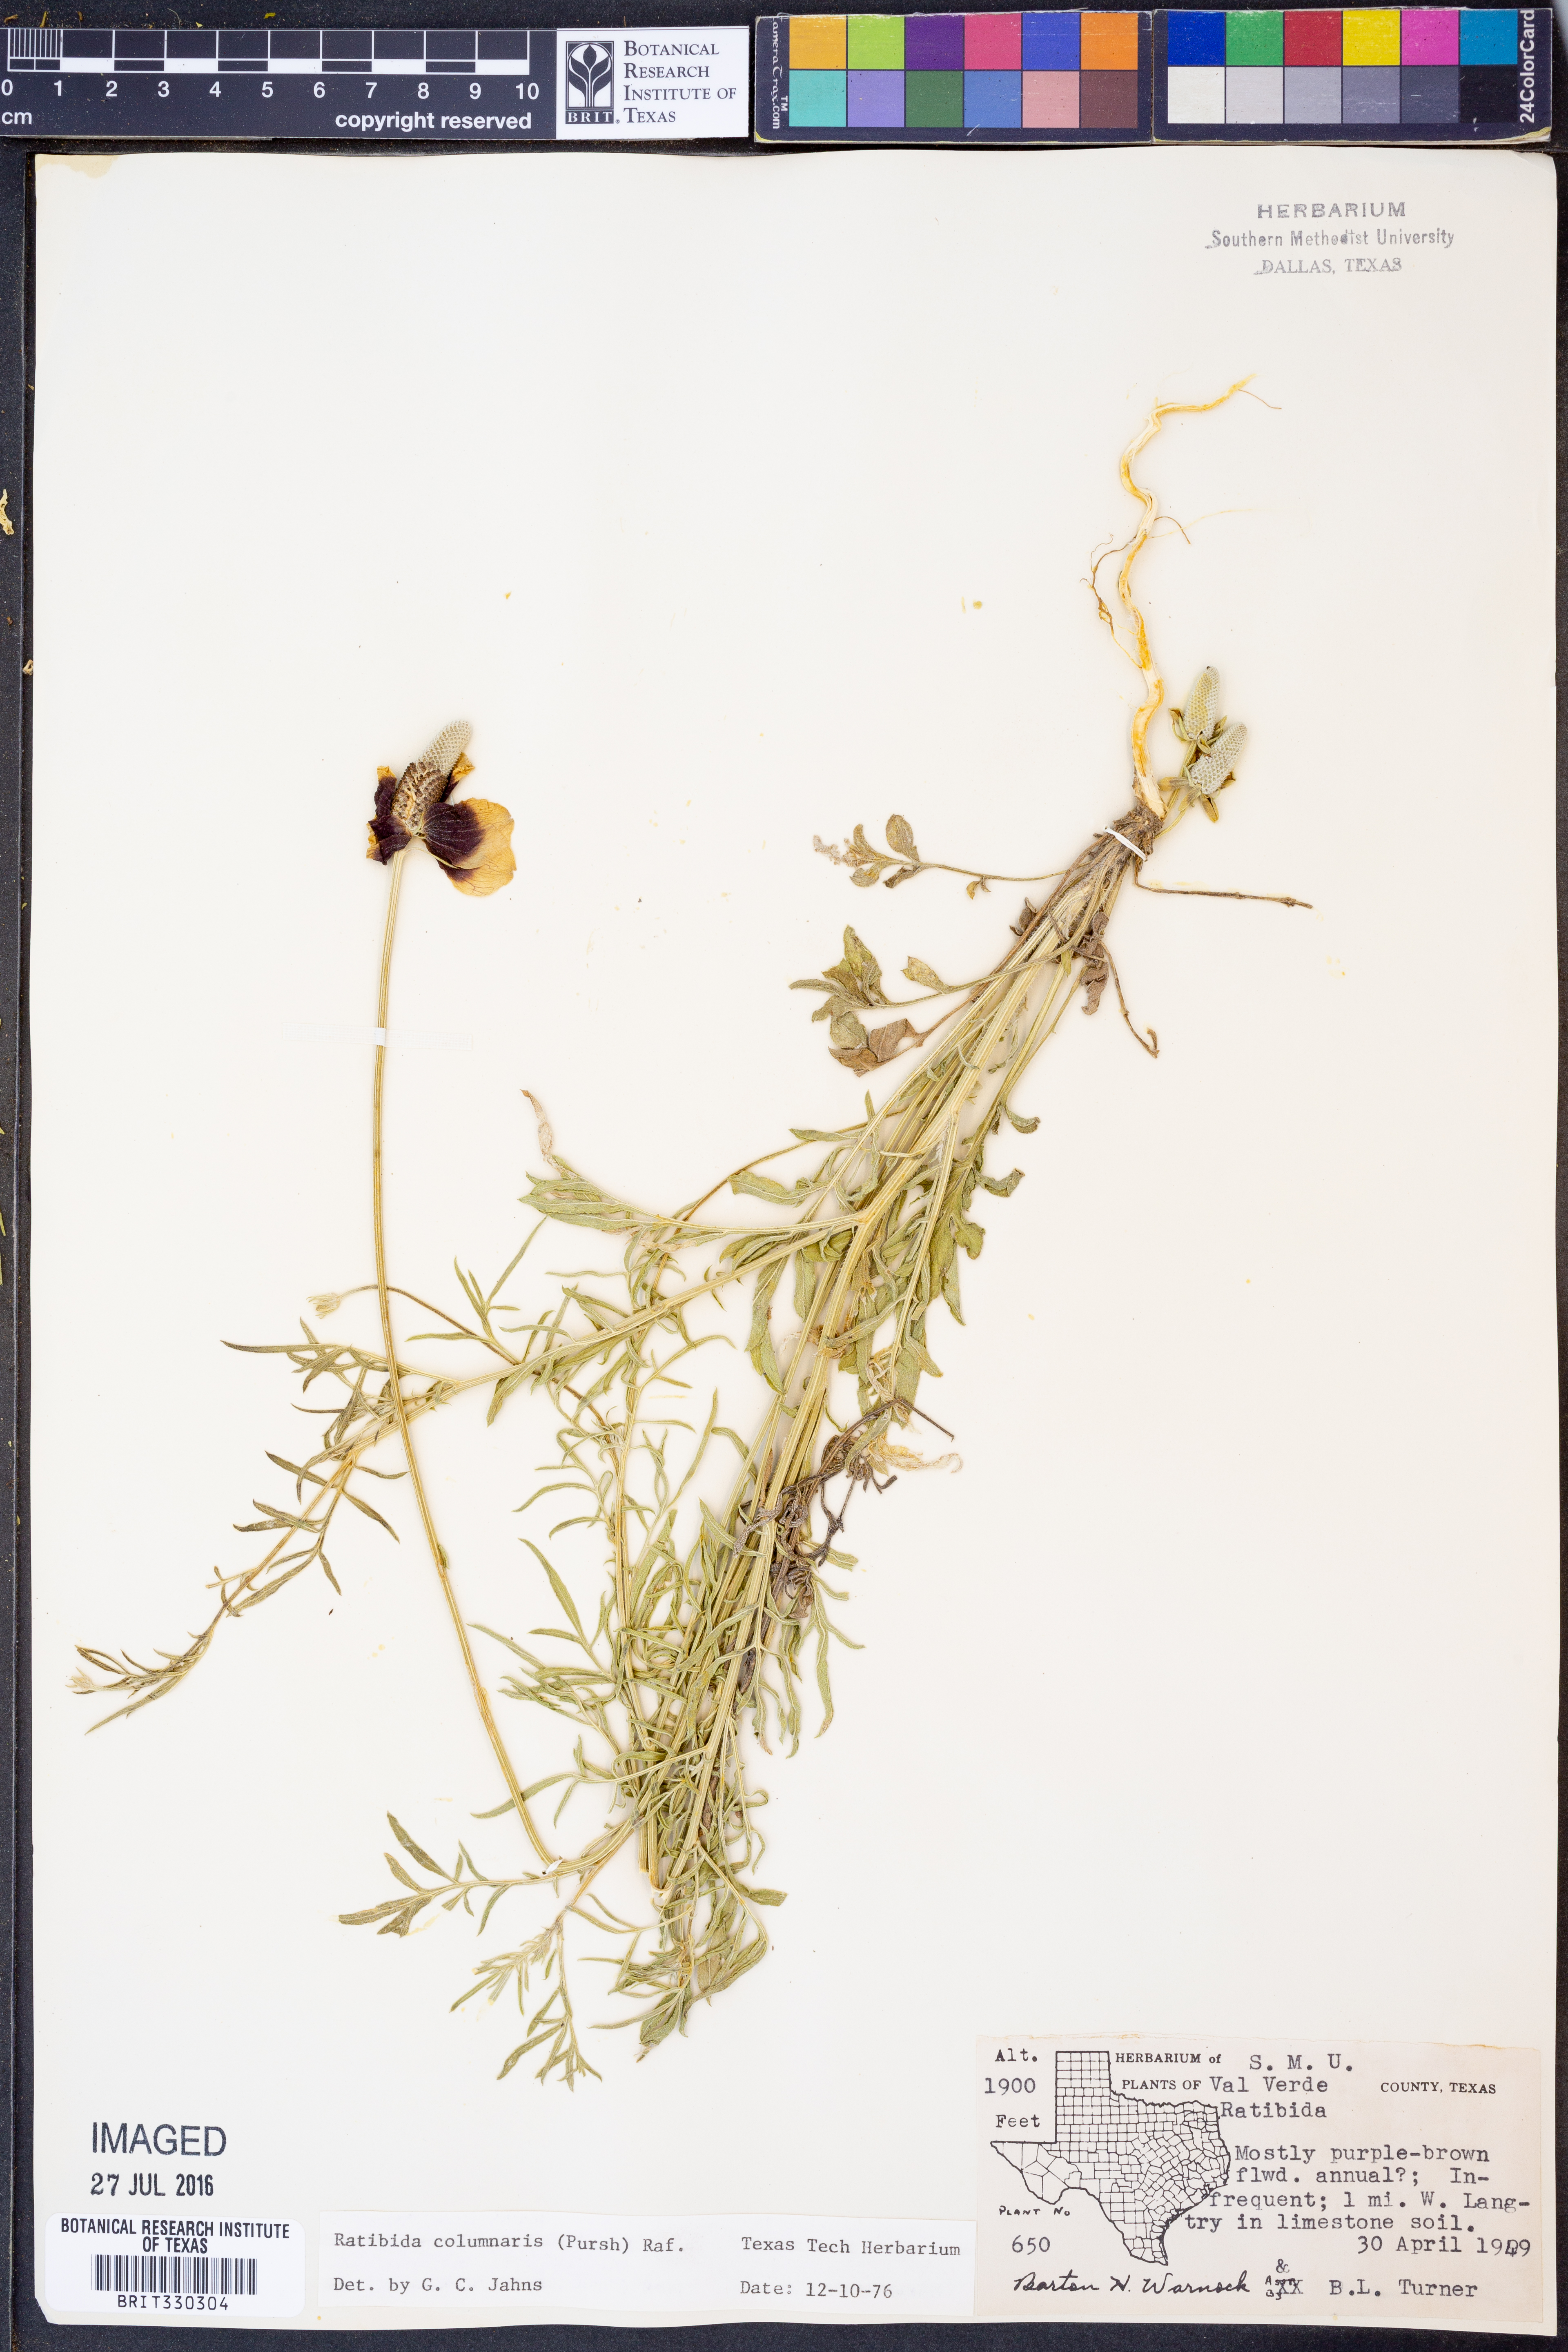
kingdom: Plantae
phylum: Tracheophyta
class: Magnoliopsida
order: Asterales
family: Asteraceae
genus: Ratibida
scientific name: Ratibida columnifera
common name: Prairie coneflower
